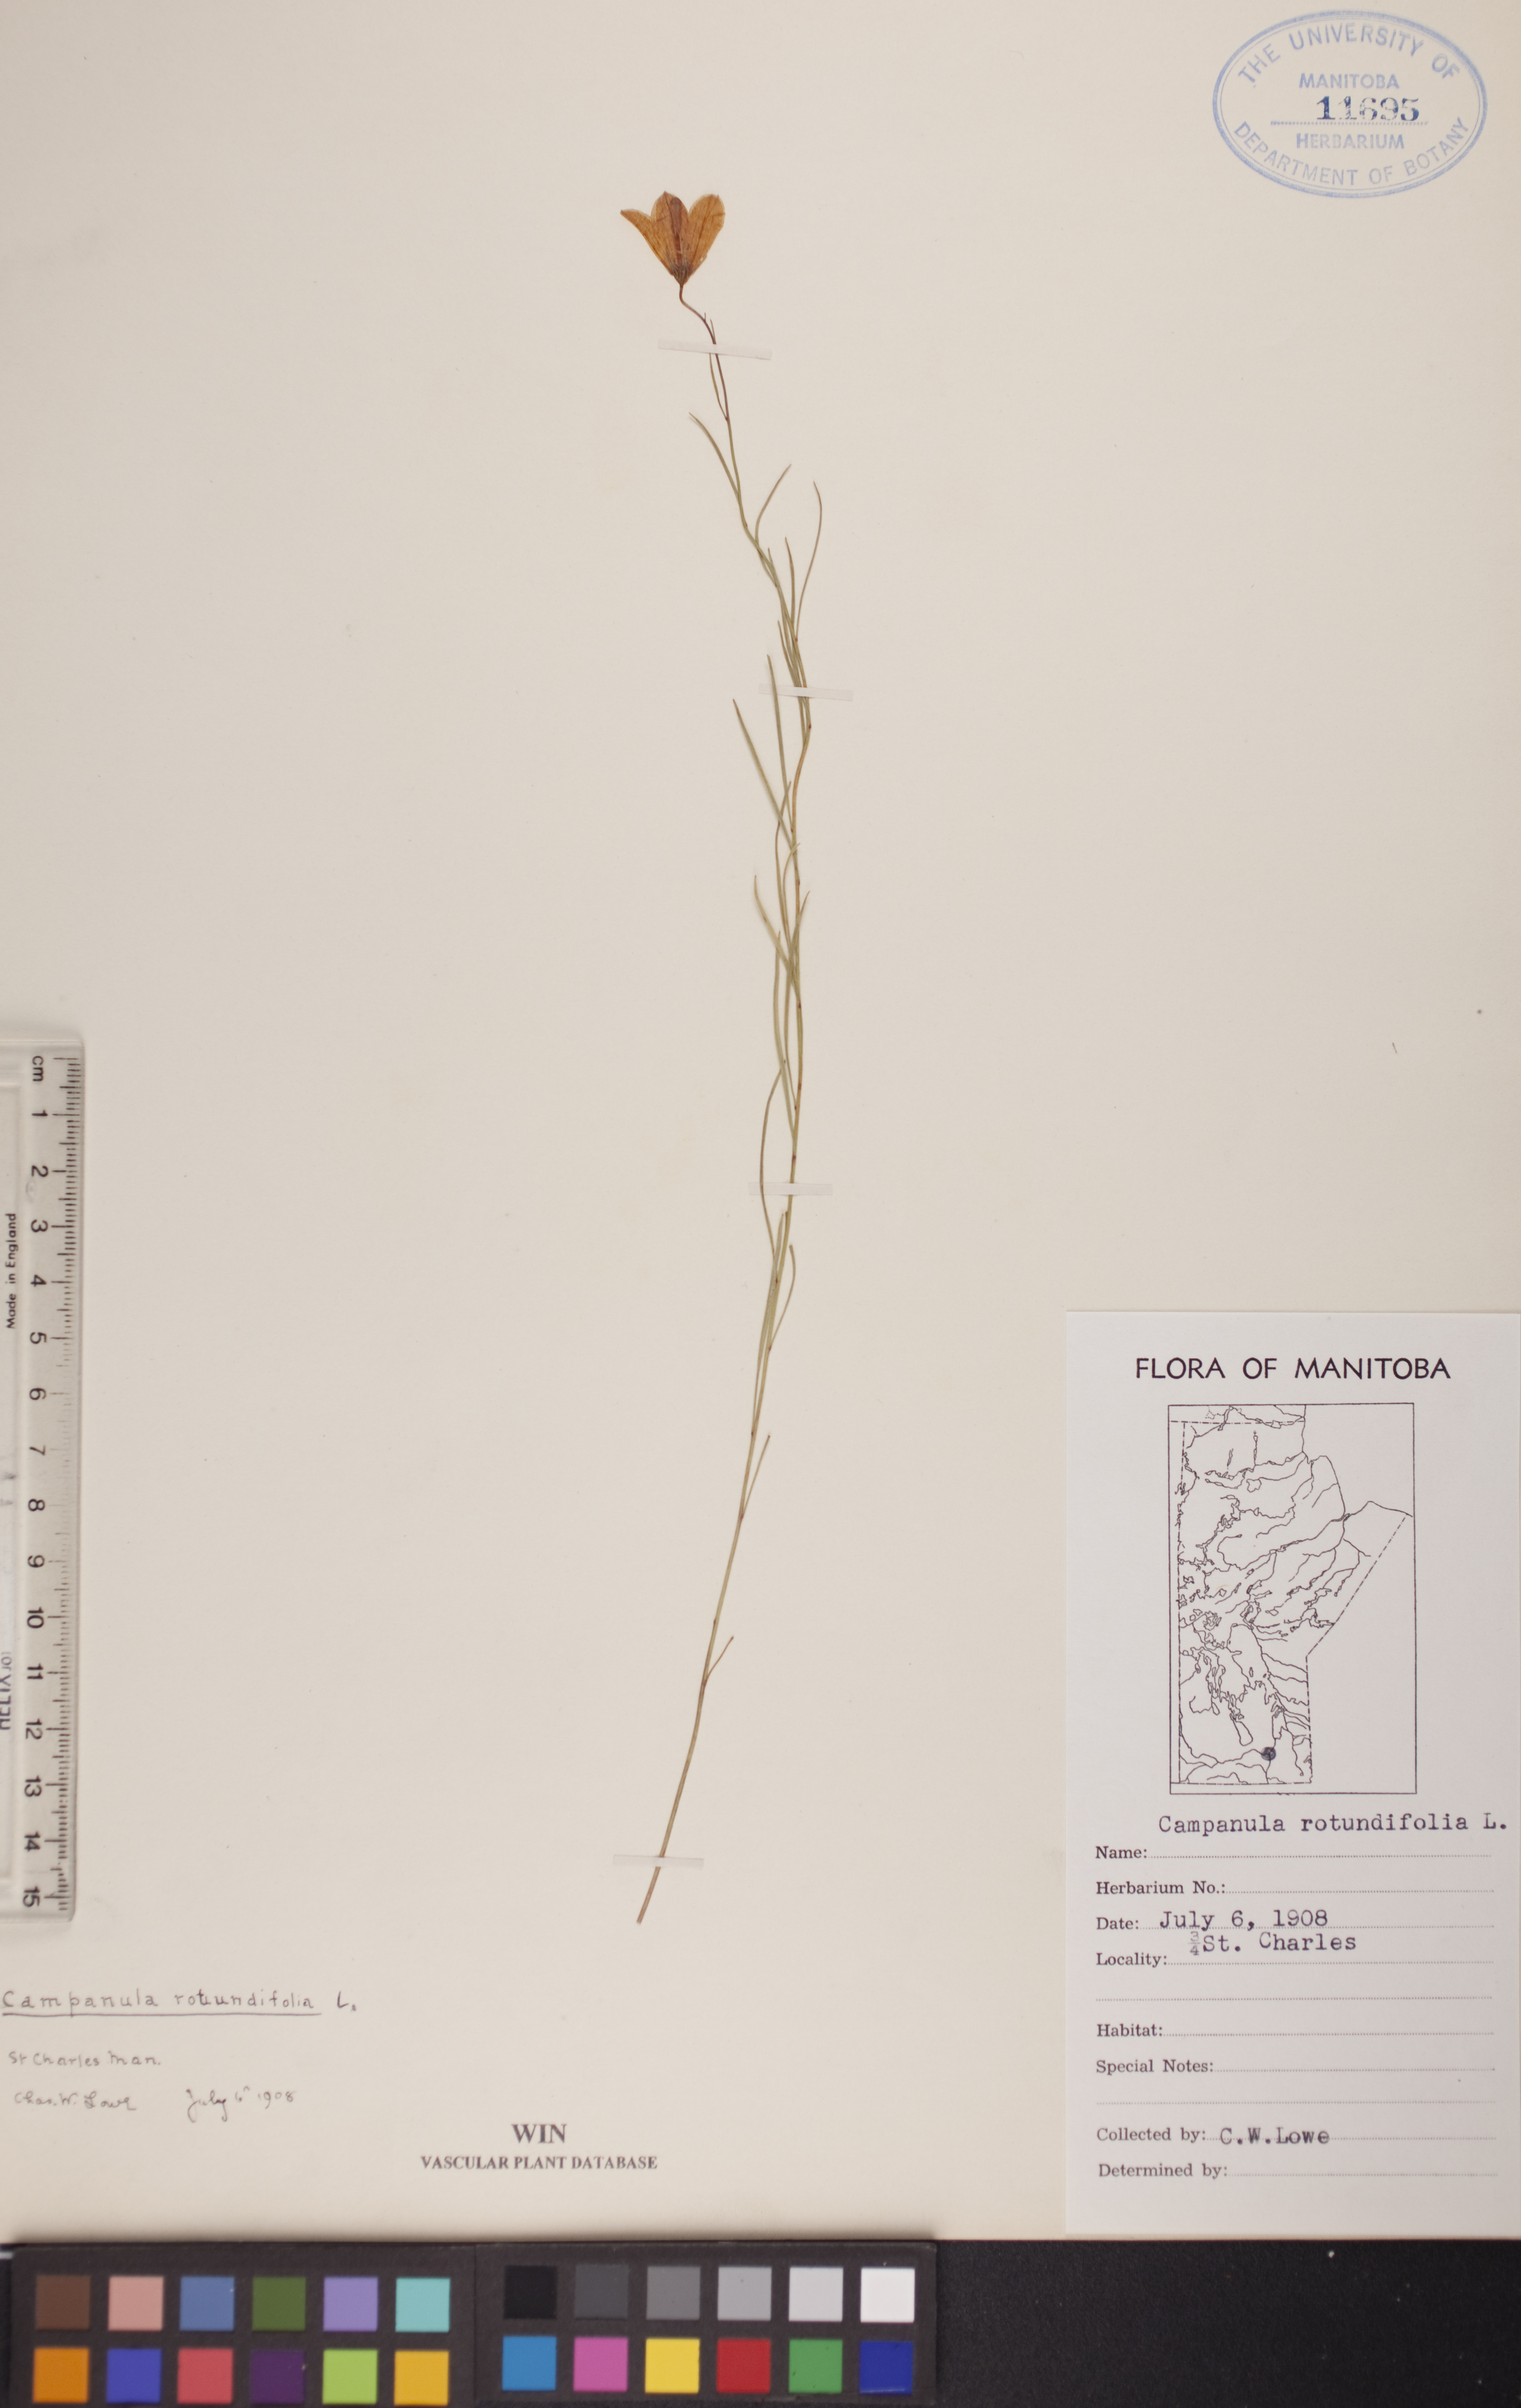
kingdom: Plantae
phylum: Tracheophyta
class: Magnoliopsida
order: Asterales
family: Campanulaceae
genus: Campanula
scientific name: Campanula rotundifolia
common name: Harebell
